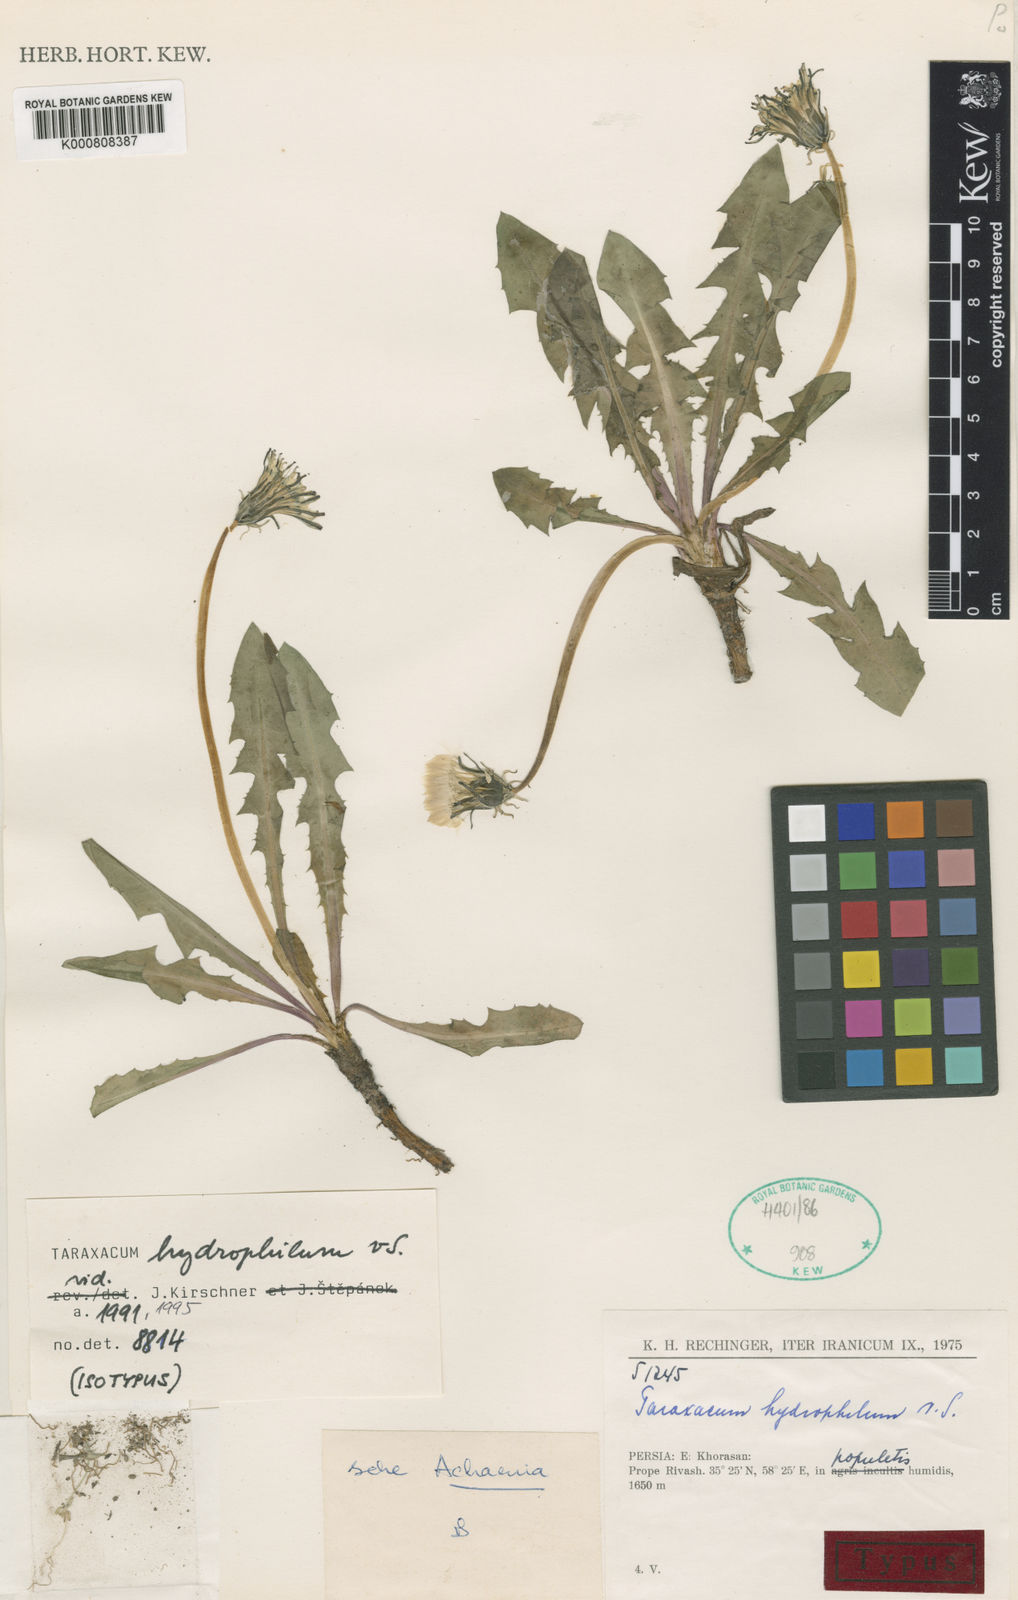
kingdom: Plantae
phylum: Tracheophyta
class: Magnoliopsida
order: Asterales
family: Asteraceae
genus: Taraxacum
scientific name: Taraxacum hydrophilum
